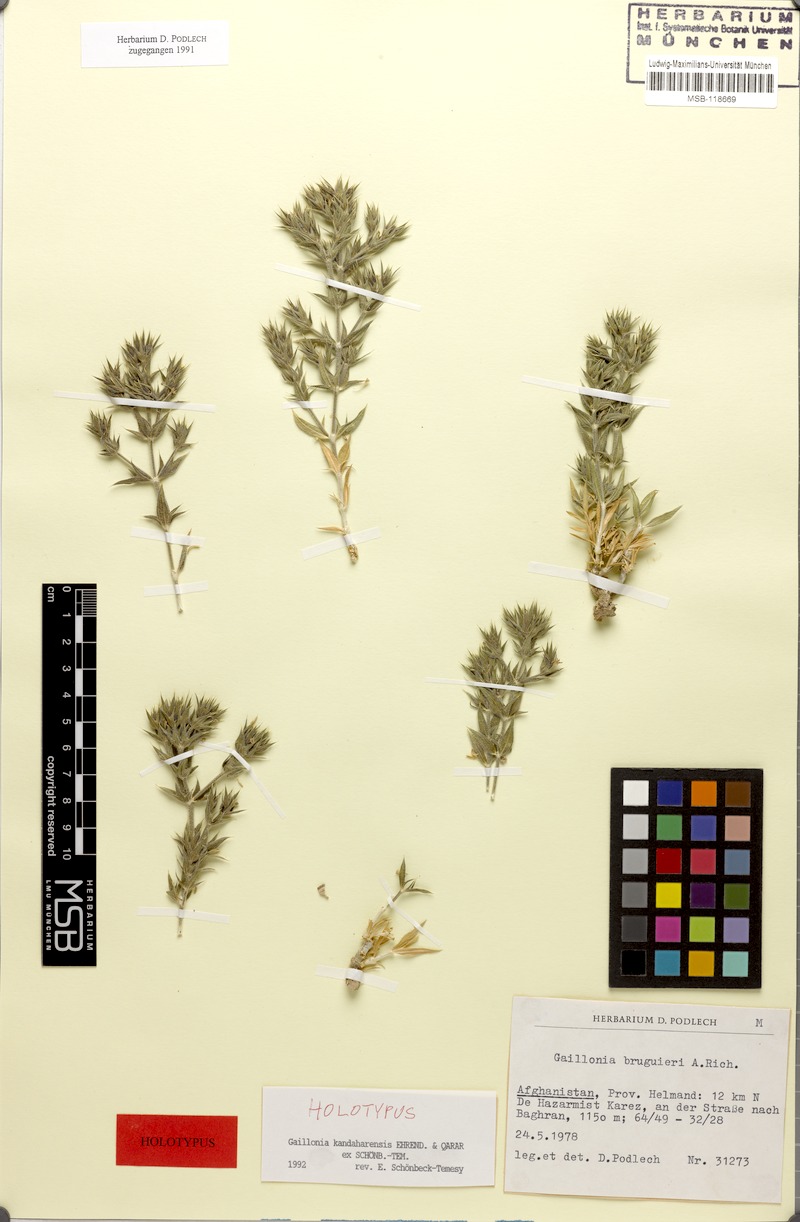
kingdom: Plantae
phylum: Tracheophyta
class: Magnoliopsida
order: Gentianales
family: Rubiaceae
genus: Plocama
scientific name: Plocama kandaharensis
